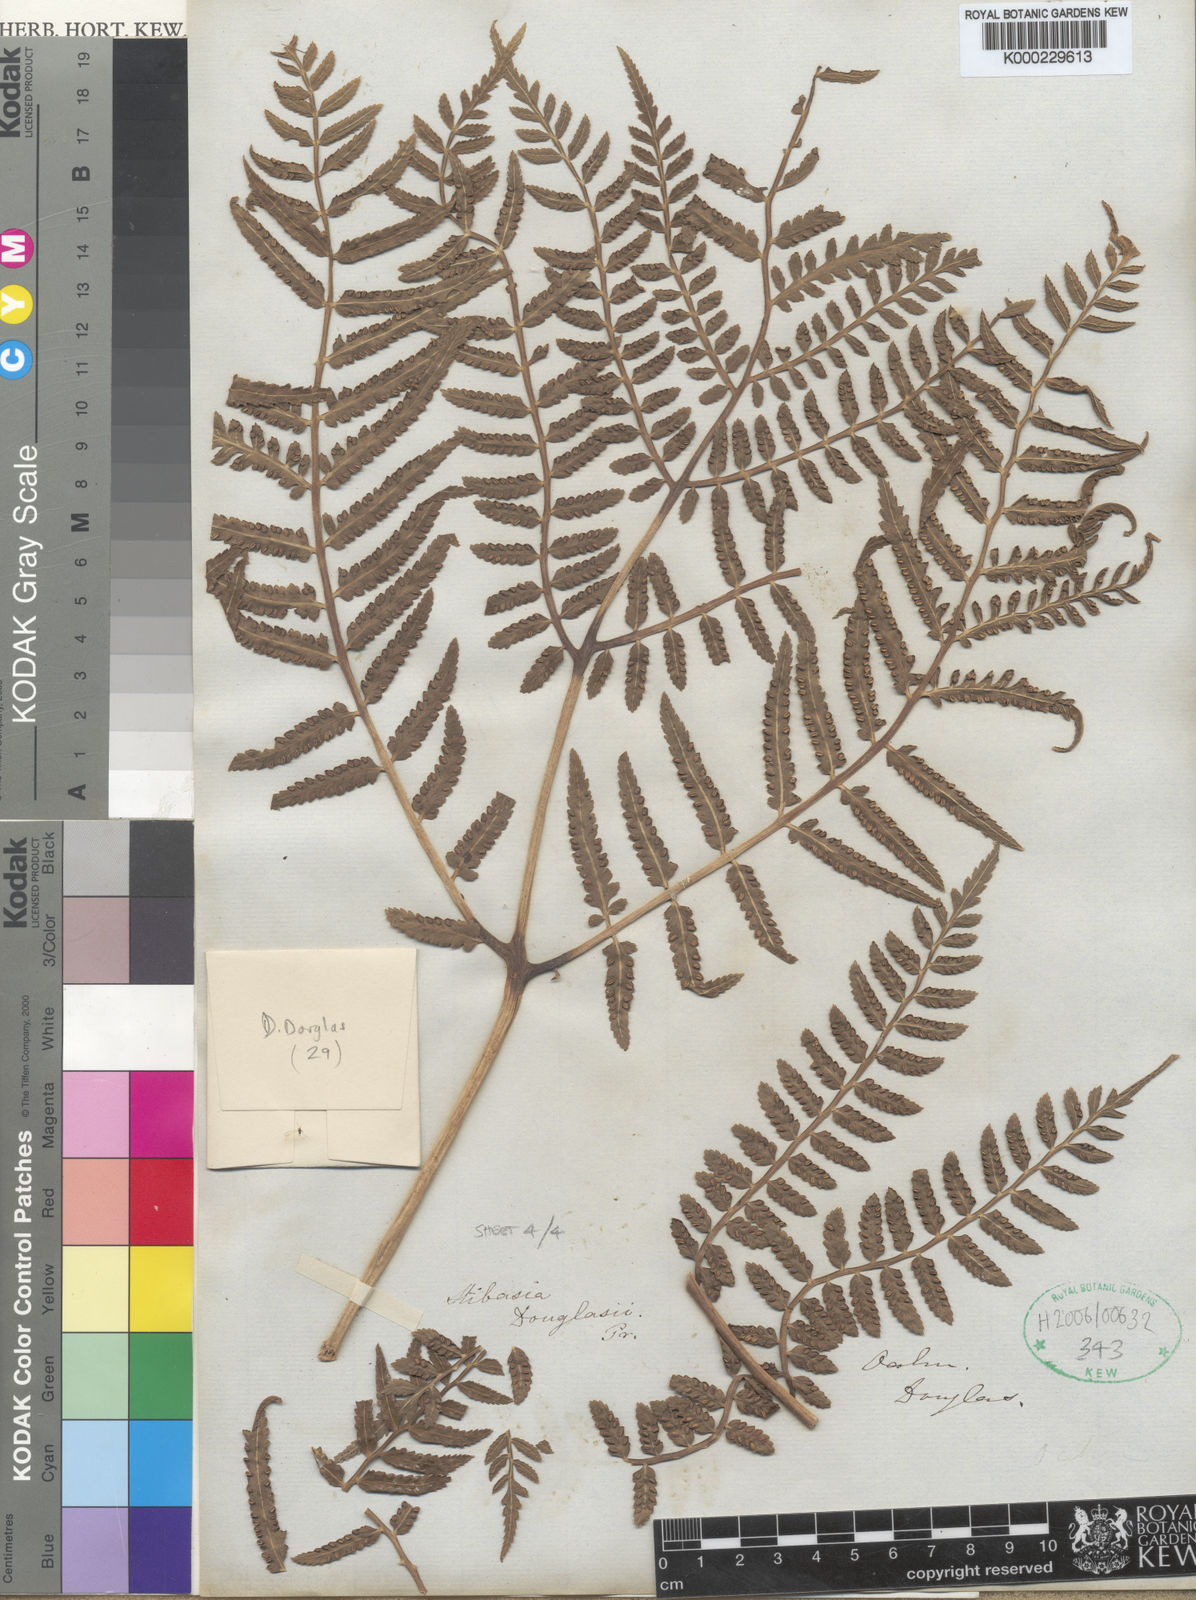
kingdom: Plantae
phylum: Tracheophyta
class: Polypodiopsida
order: Marattiales
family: Marattiaceae
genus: Marattia
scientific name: Marattia douglasii
